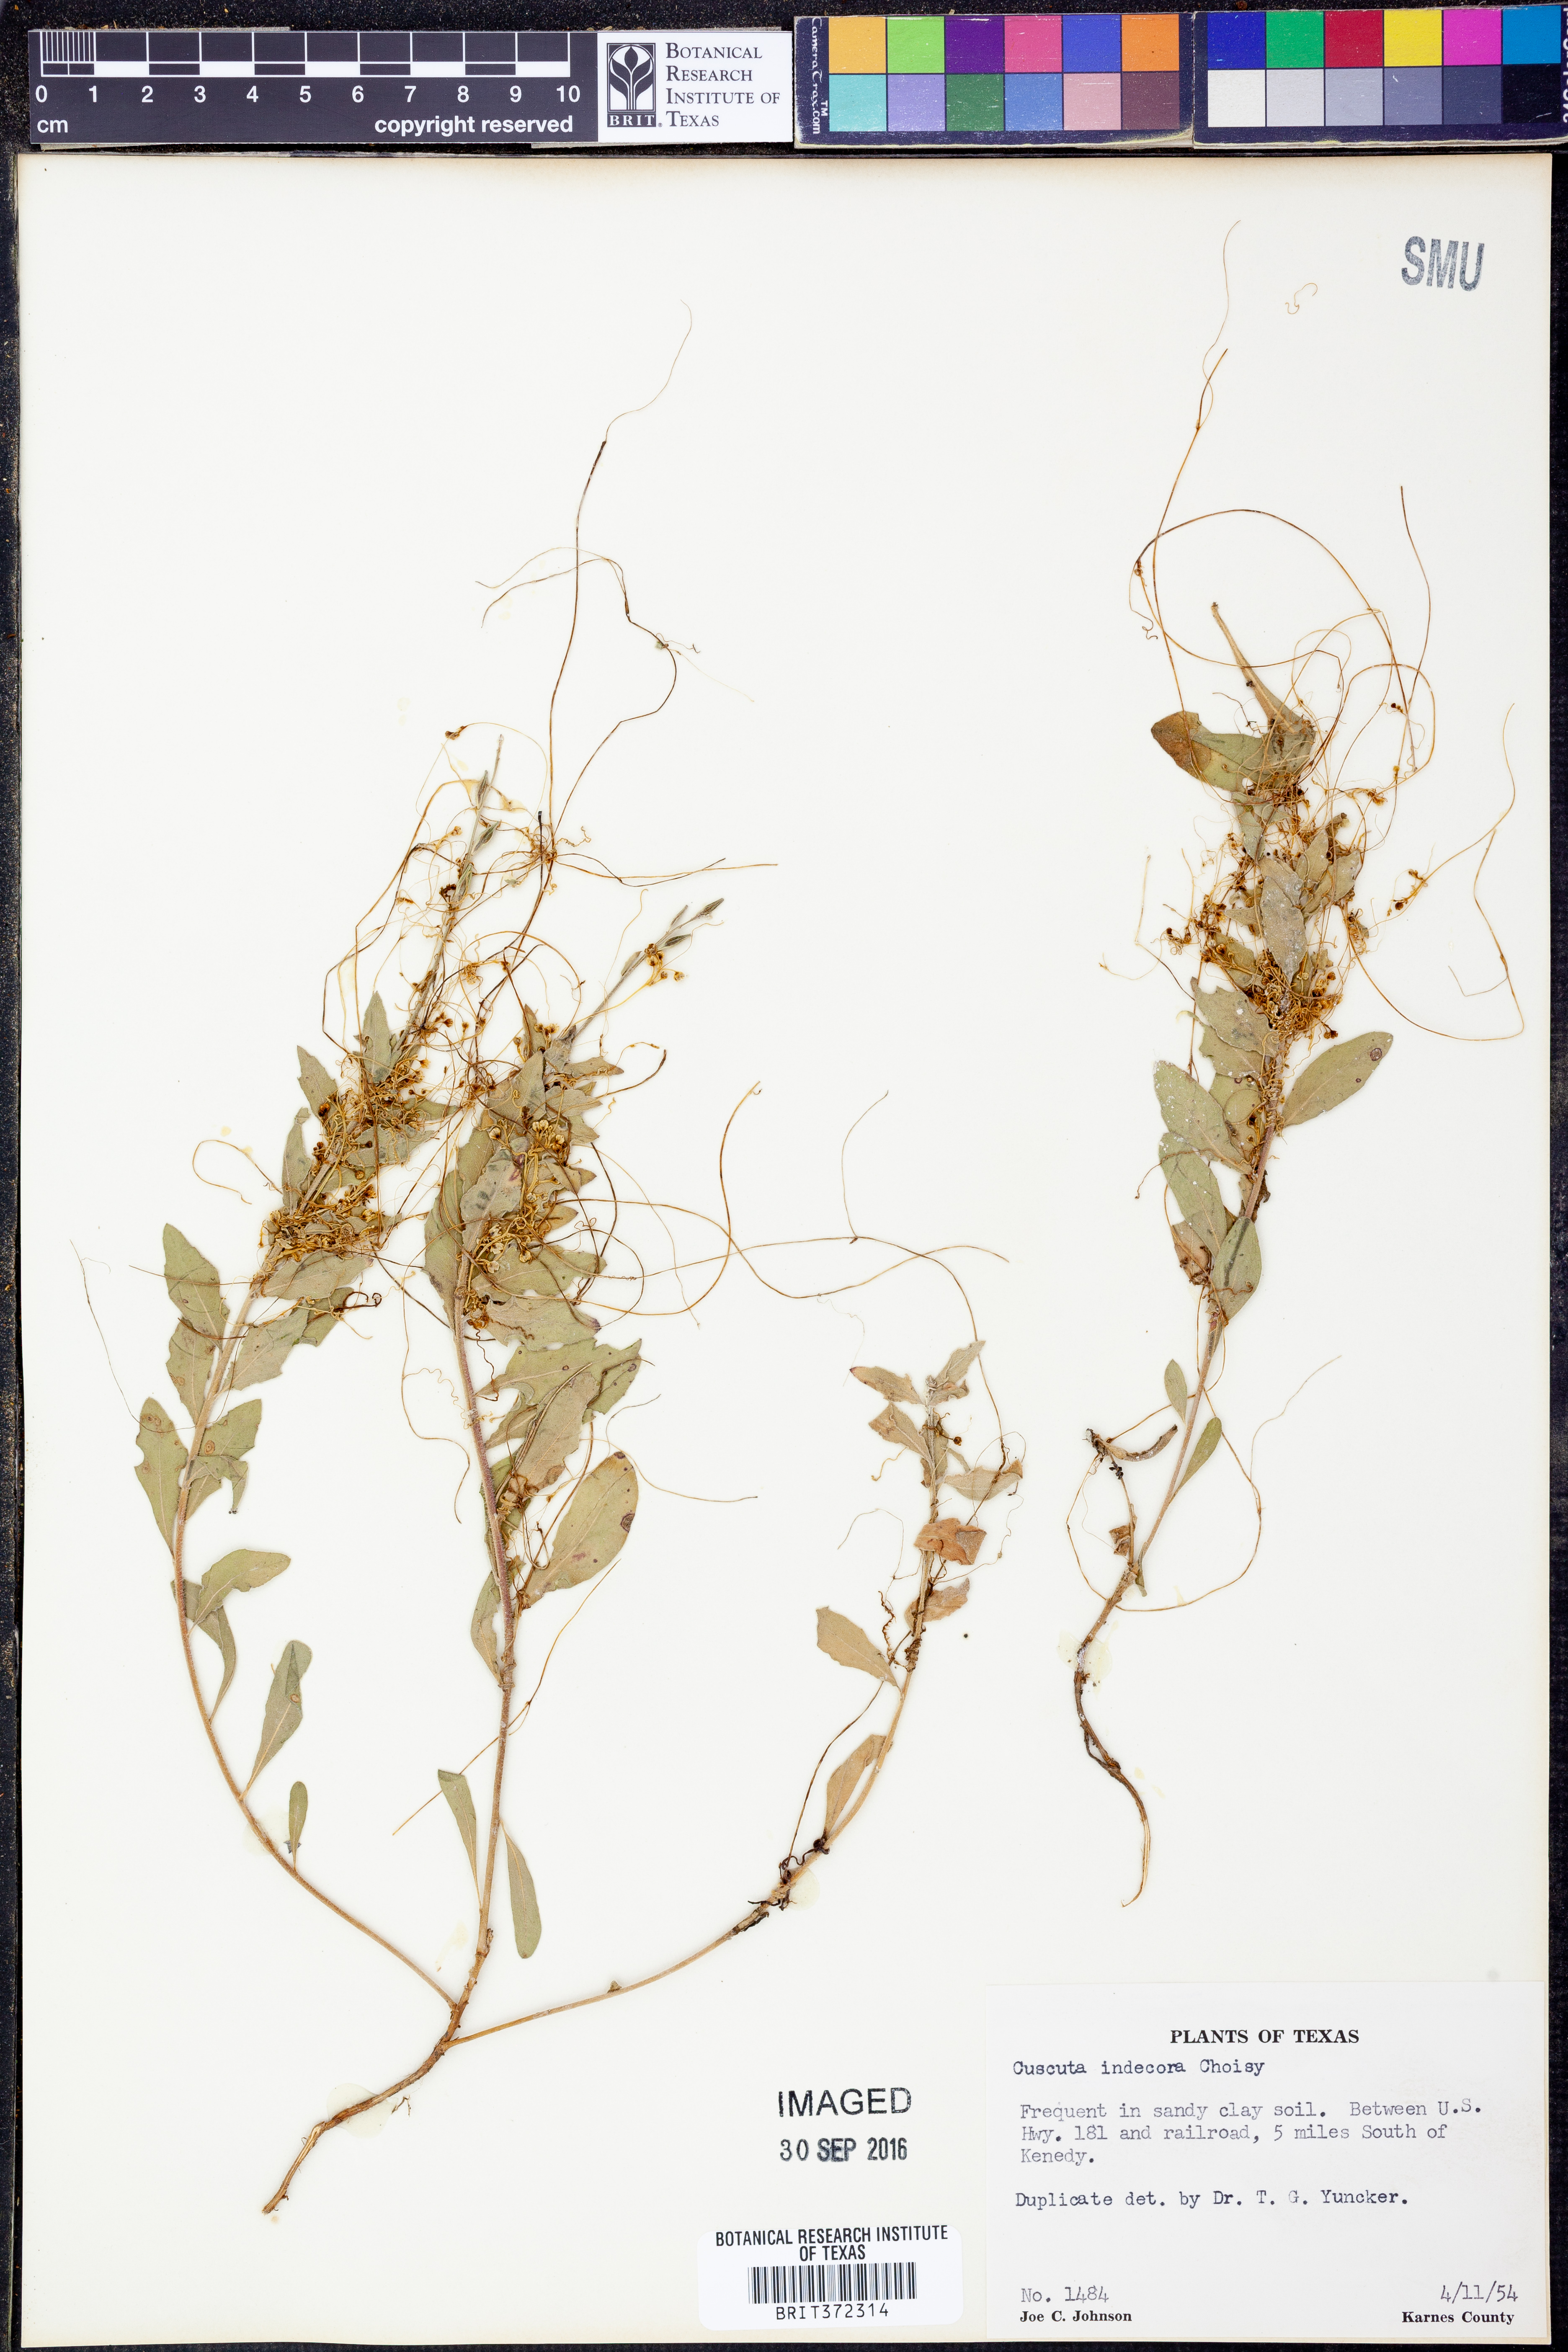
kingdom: Plantae
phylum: Tracheophyta
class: Magnoliopsida
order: Solanales
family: Convolvulaceae
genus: Cuscuta
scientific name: Cuscuta indecora
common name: Large-seed dodder
